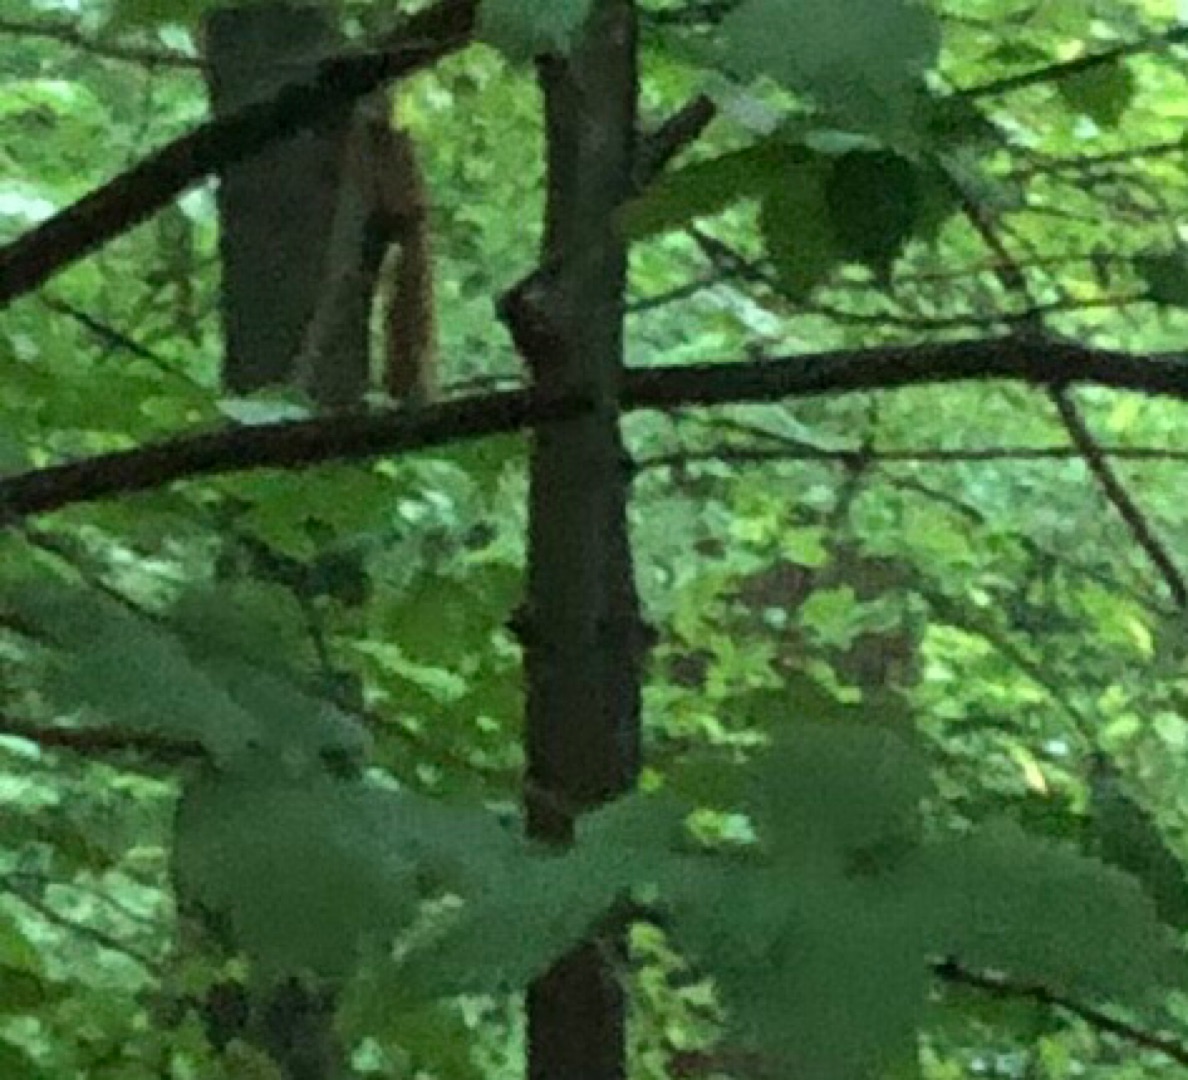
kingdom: Animalia
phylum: Chordata
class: Mammalia
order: Rodentia
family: Sciuridae
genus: Sciurus
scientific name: Sciurus vulgaris
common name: Egern
